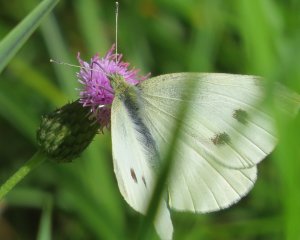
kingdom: Animalia
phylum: Arthropoda
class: Insecta
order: Lepidoptera
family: Pieridae
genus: Pieris
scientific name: Pieris rapae
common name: Cabbage White
